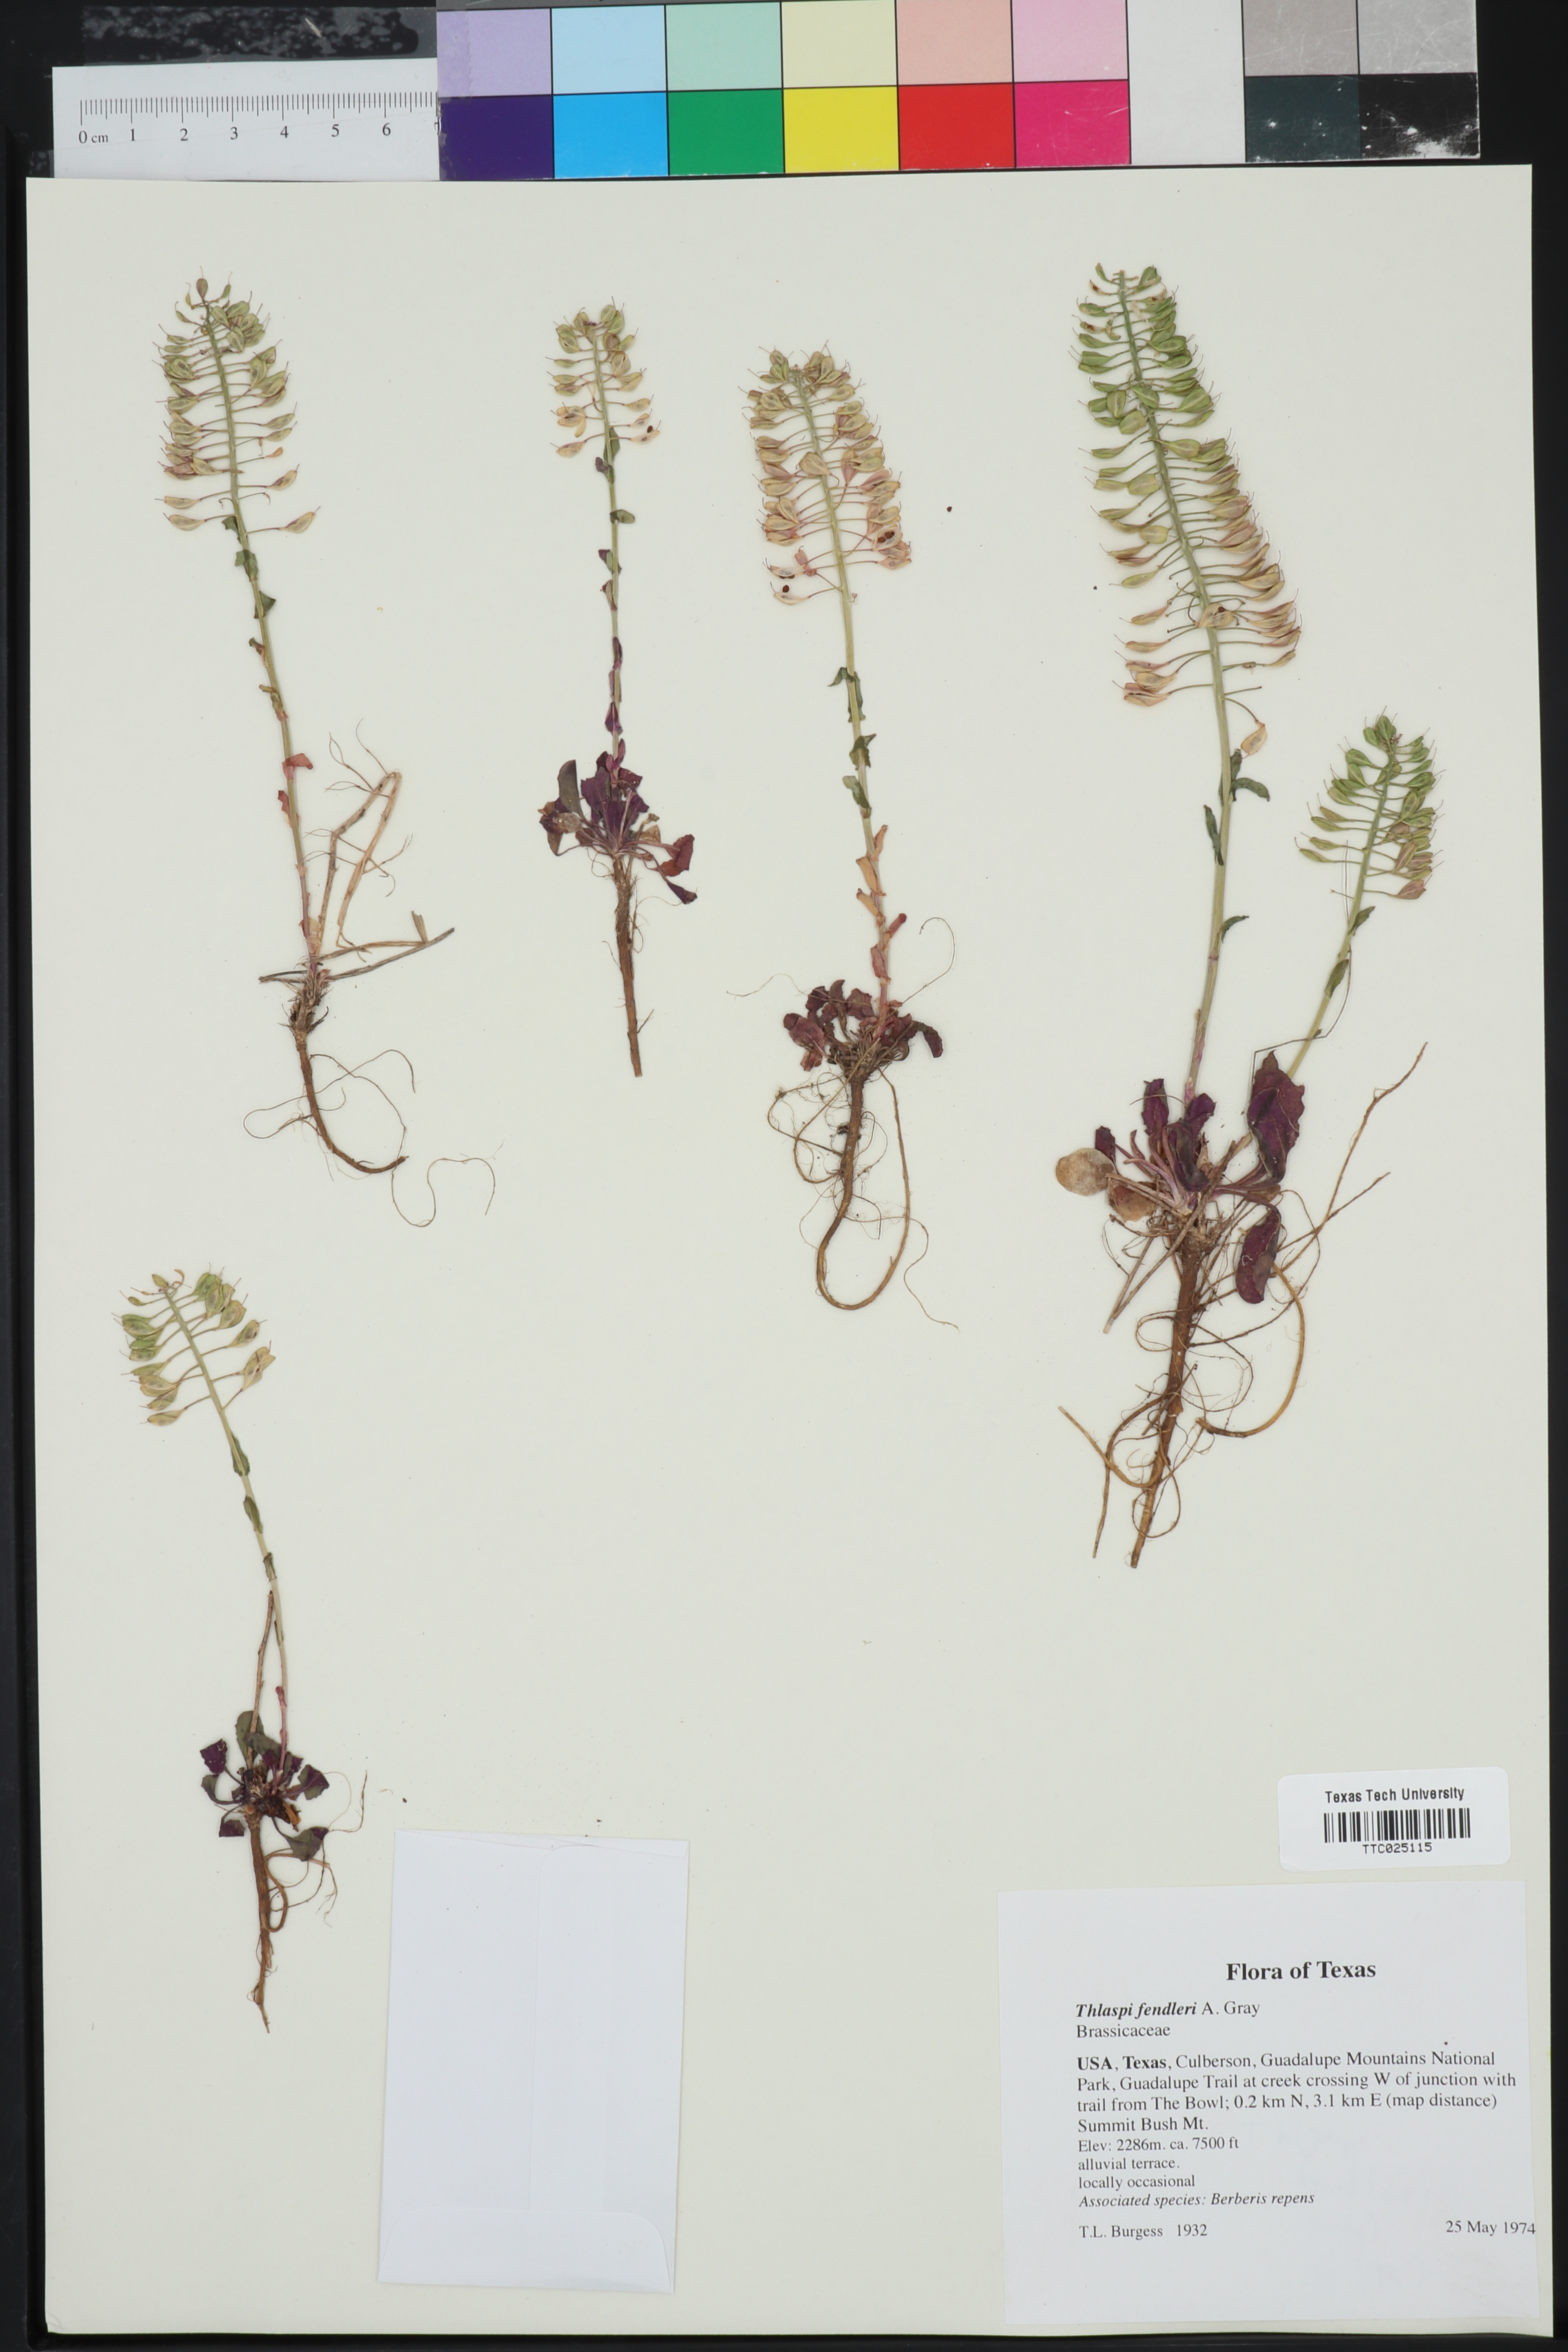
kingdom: Plantae
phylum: Tracheophyta
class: Magnoliopsida
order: Brassicales
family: Brassicaceae
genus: Noccaea
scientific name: Noccaea fendleri
